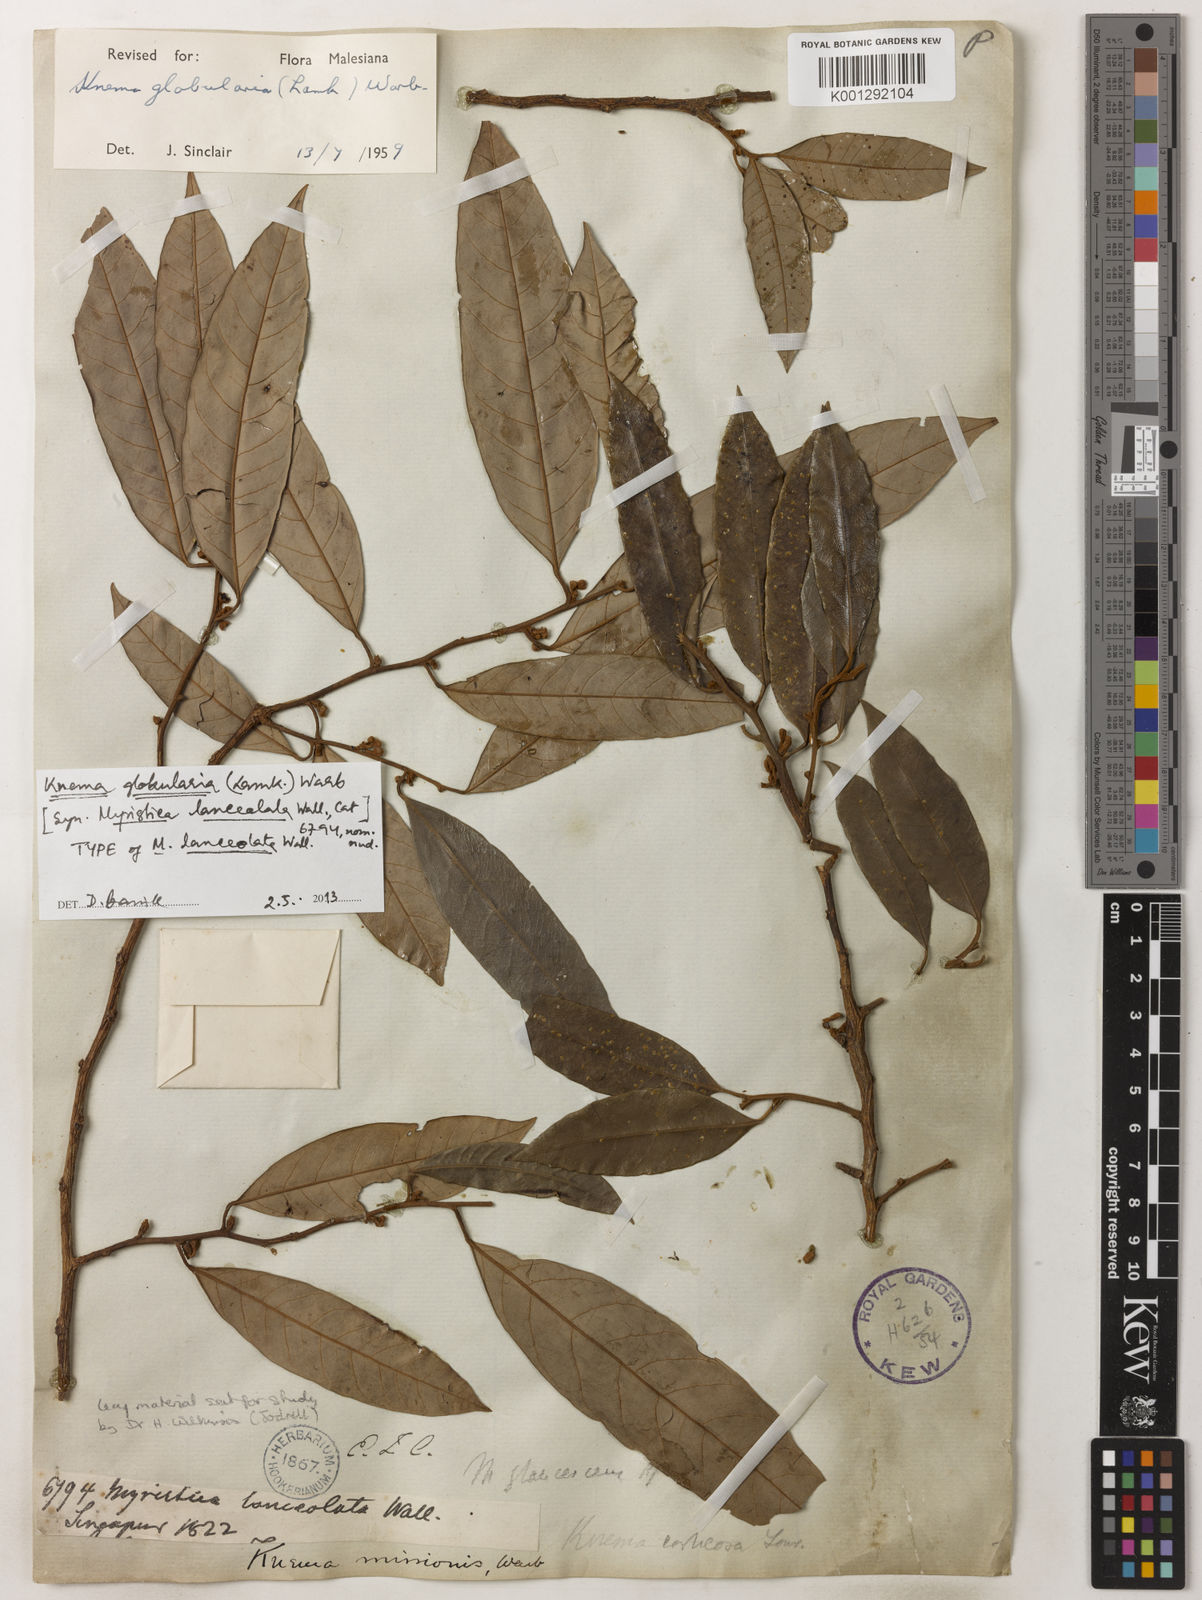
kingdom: Plantae
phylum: Tracheophyta
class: Magnoliopsida
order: Magnoliales
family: Myristicaceae
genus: Knema
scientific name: Knema globularia
